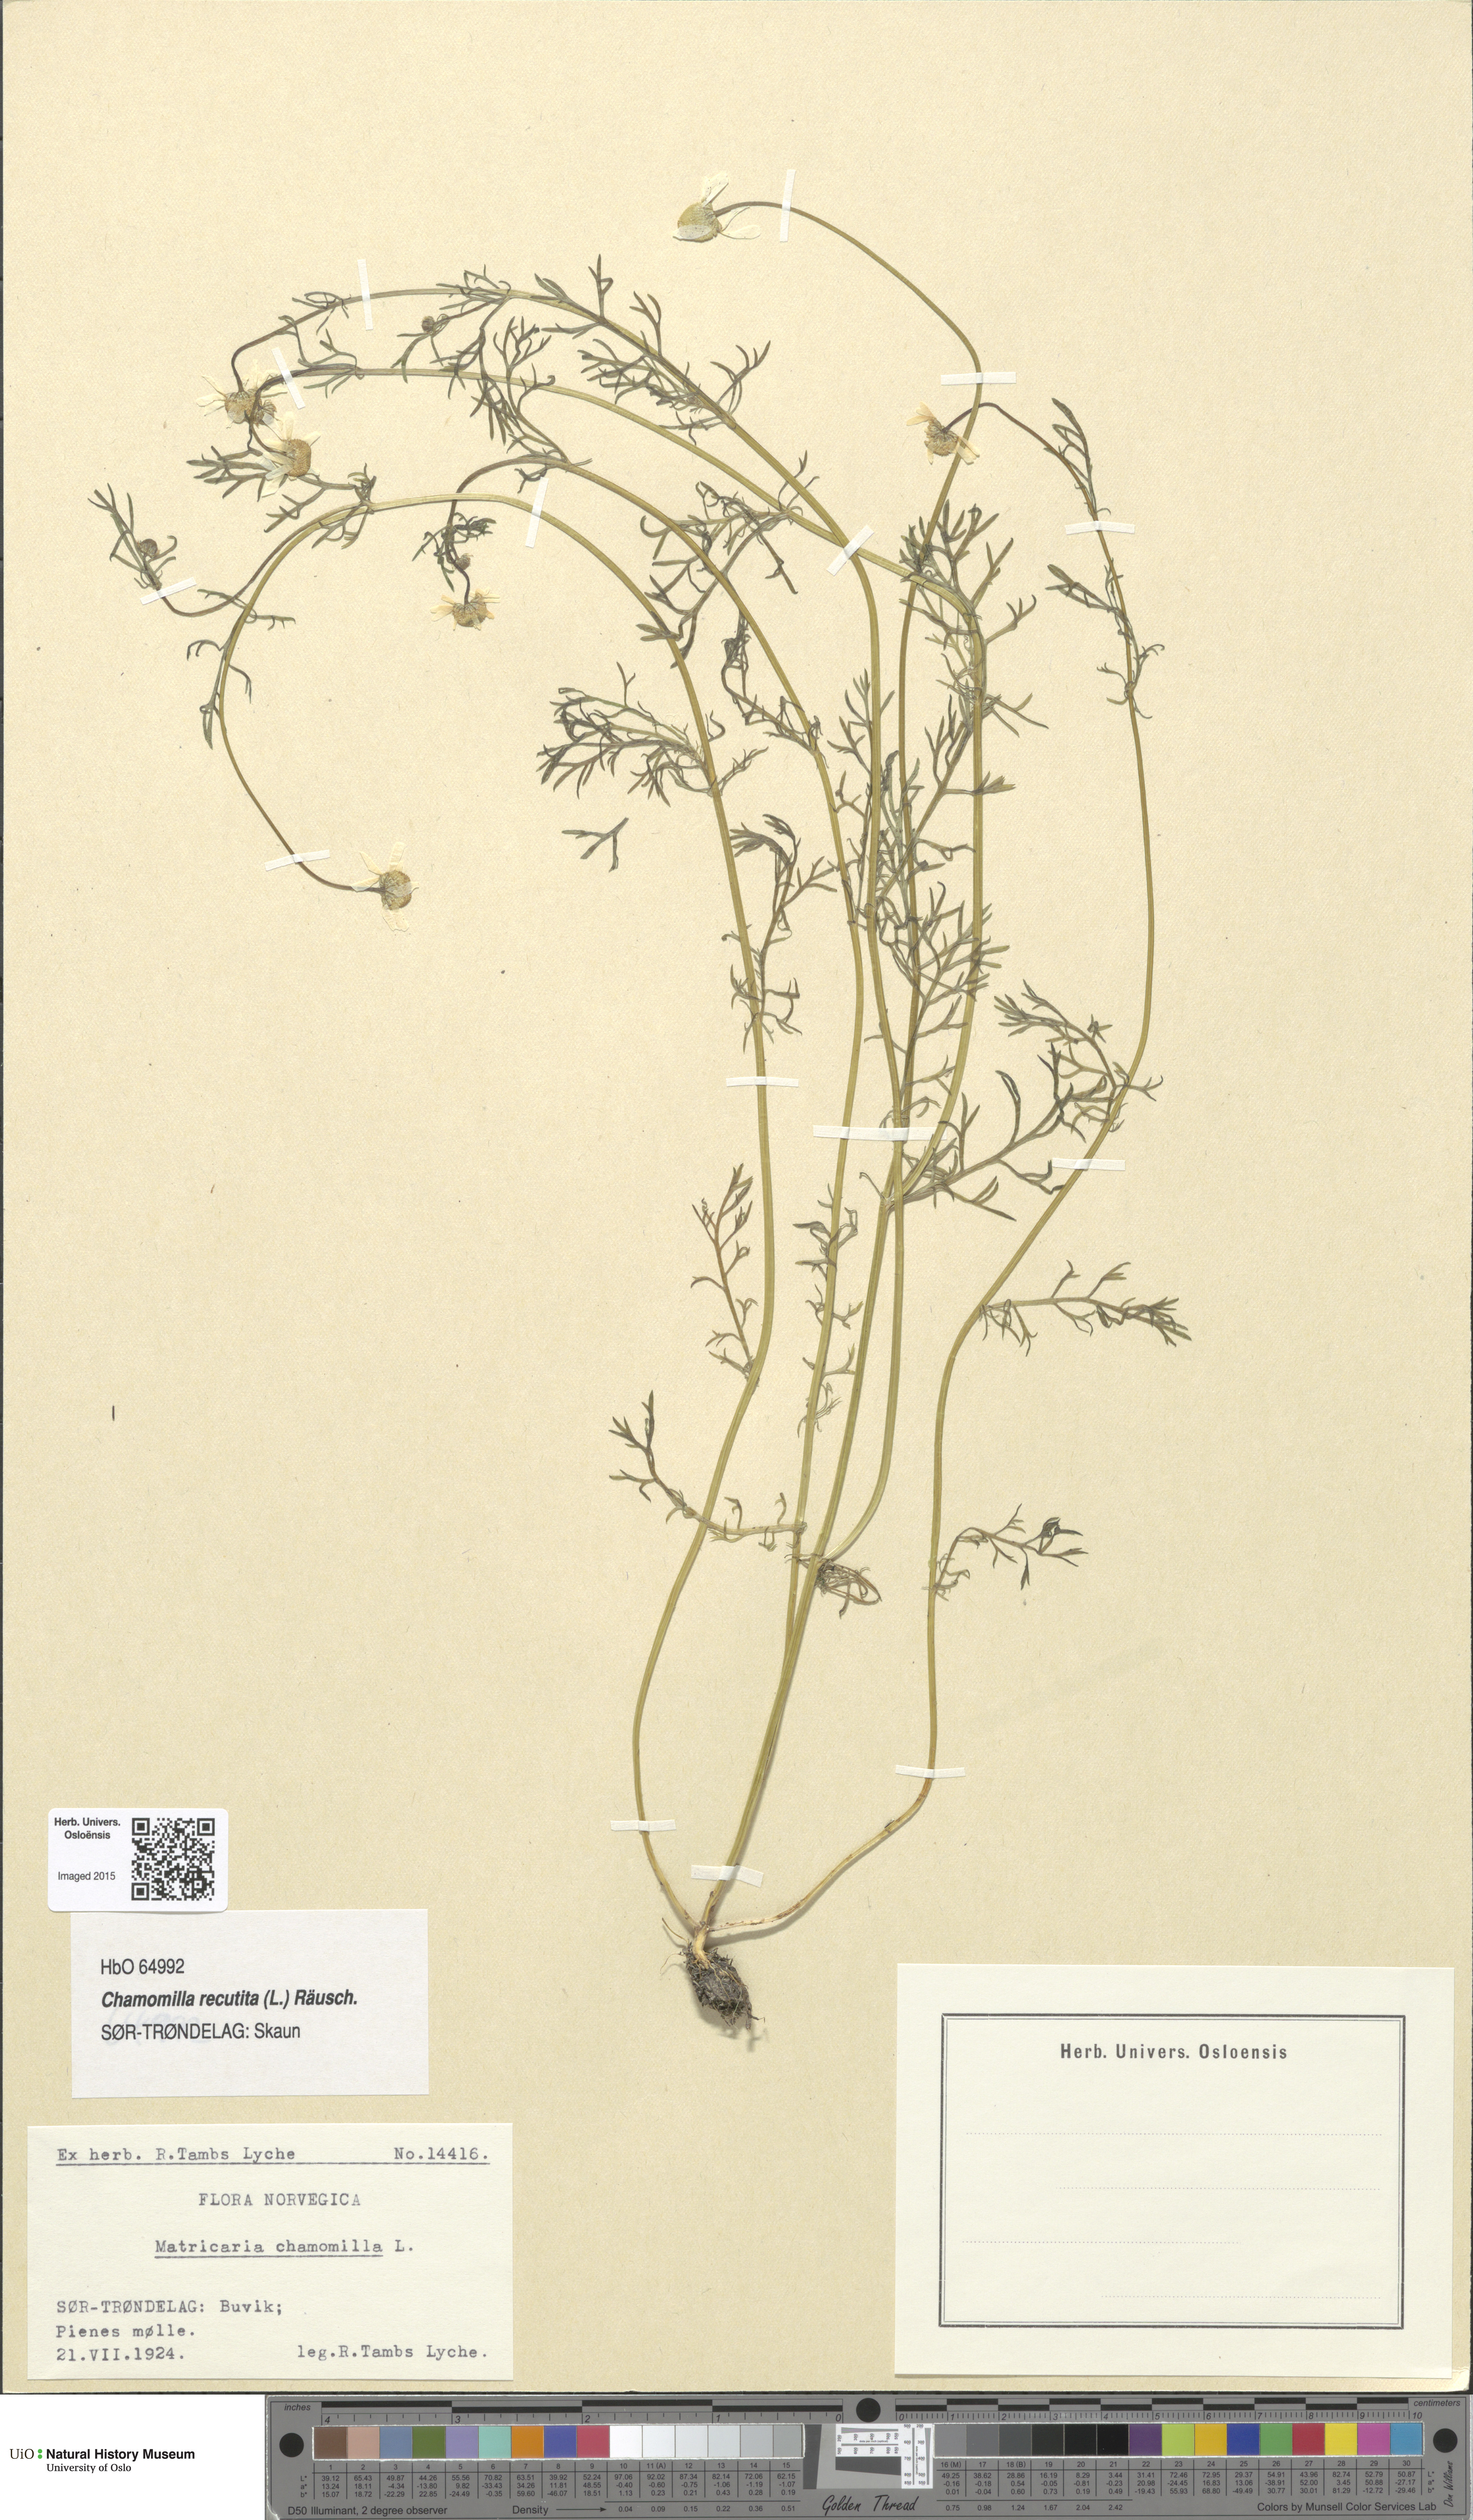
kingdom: Plantae
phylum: Tracheophyta
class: Magnoliopsida
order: Asterales
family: Asteraceae
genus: Matricaria
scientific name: Matricaria chamomilla
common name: Scented mayweed
